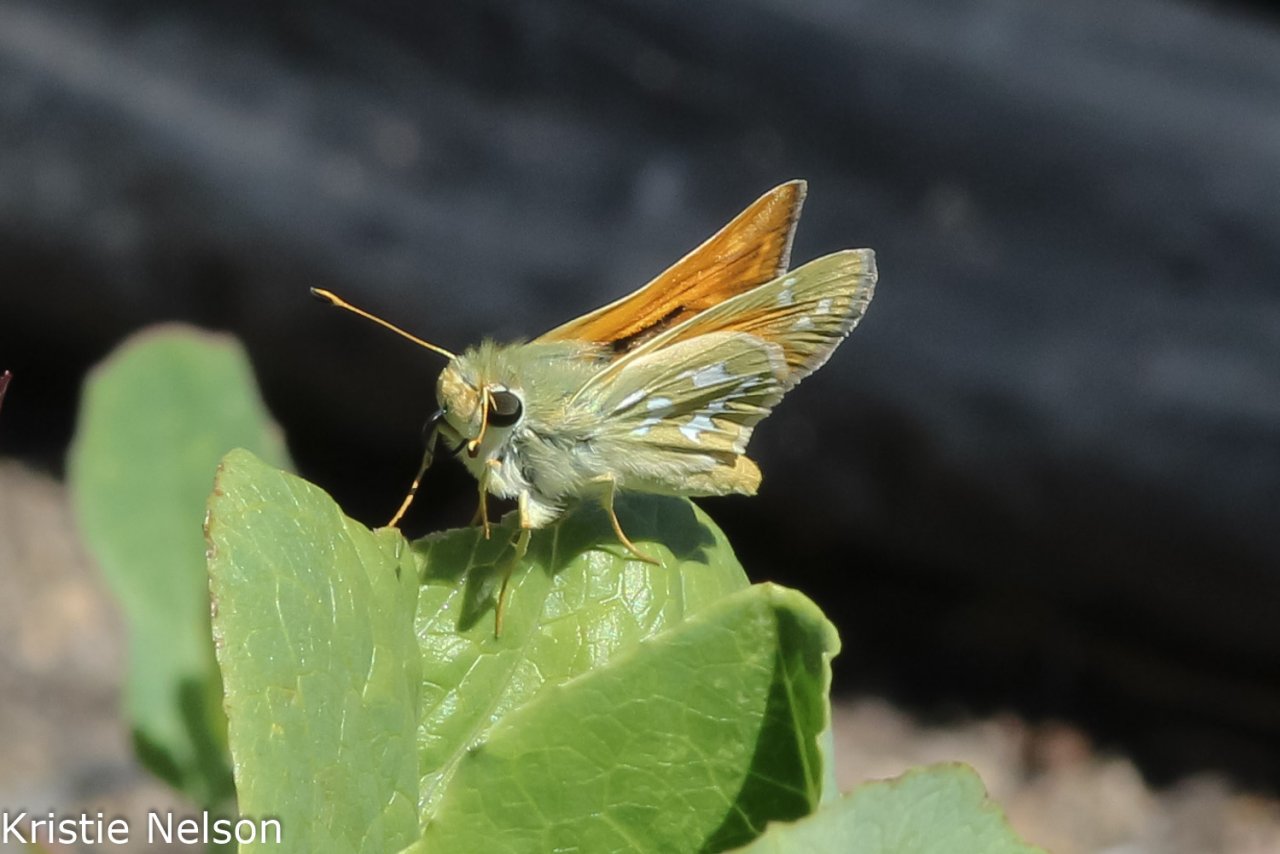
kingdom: Animalia
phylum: Arthropoda
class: Insecta
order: Lepidoptera
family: Hesperiidae
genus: Hesperia
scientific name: Hesperia comma
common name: Western Branded Skipper
